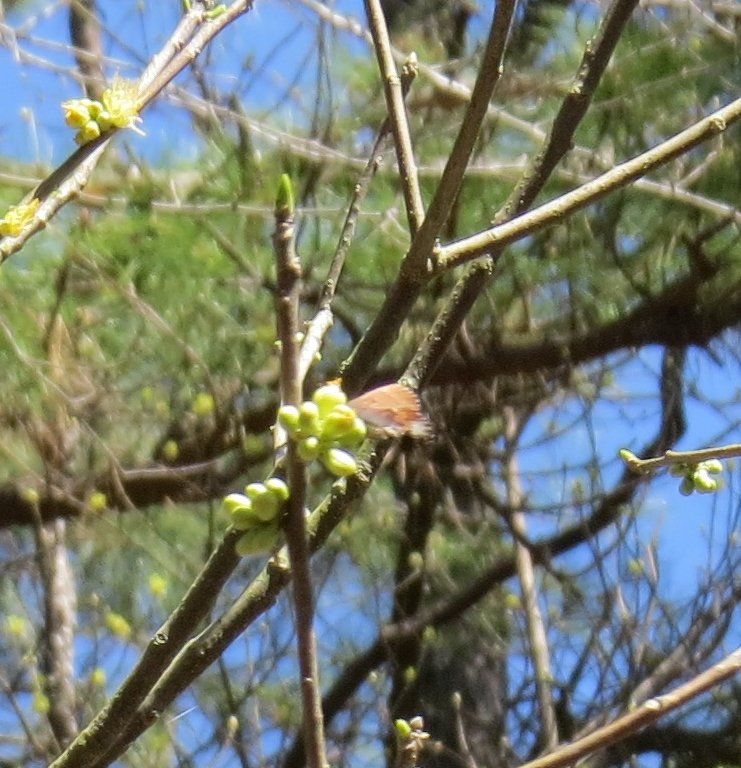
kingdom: Animalia
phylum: Arthropoda
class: Insecta
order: Lepidoptera
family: Lycaenidae
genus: Incisalia
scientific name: Incisalia henrici
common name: Henry's Elfin
